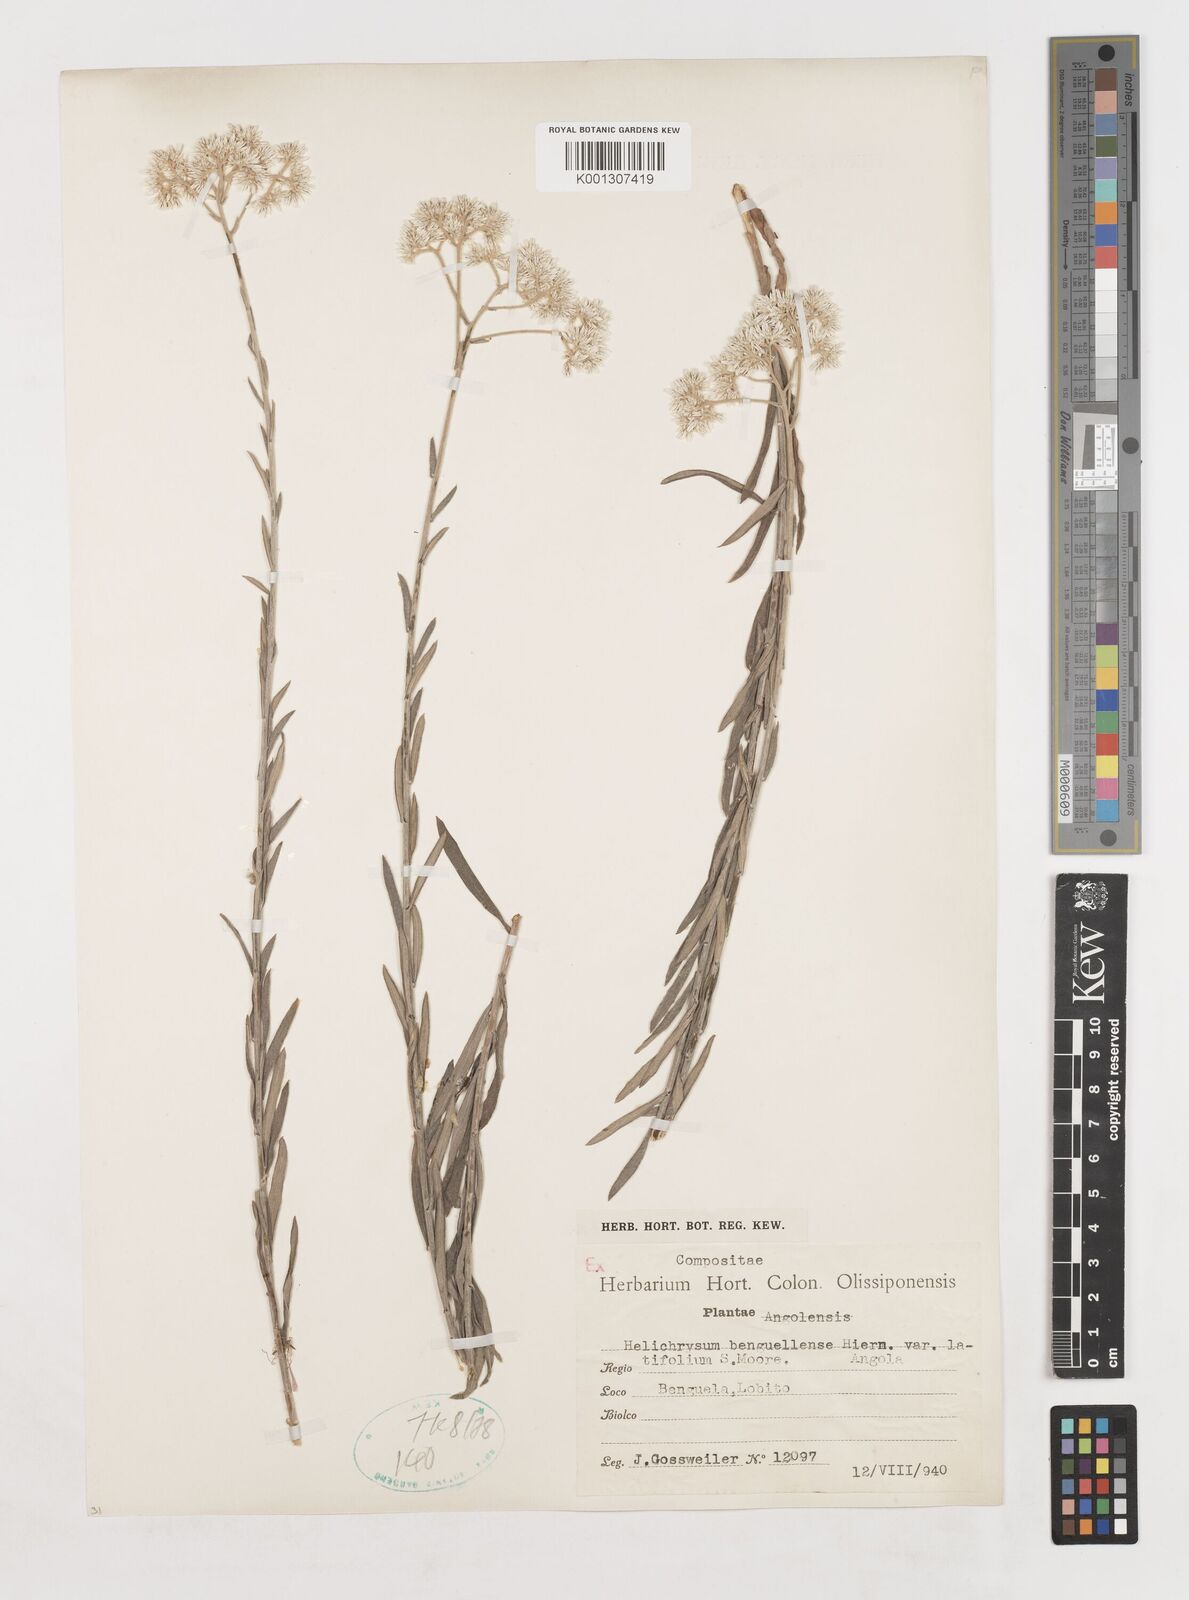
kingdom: Plantae
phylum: Tracheophyta
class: Magnoliopsida
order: Asterales
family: Asteraceae
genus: Helichrysum
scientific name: Helichrysum benguellense
